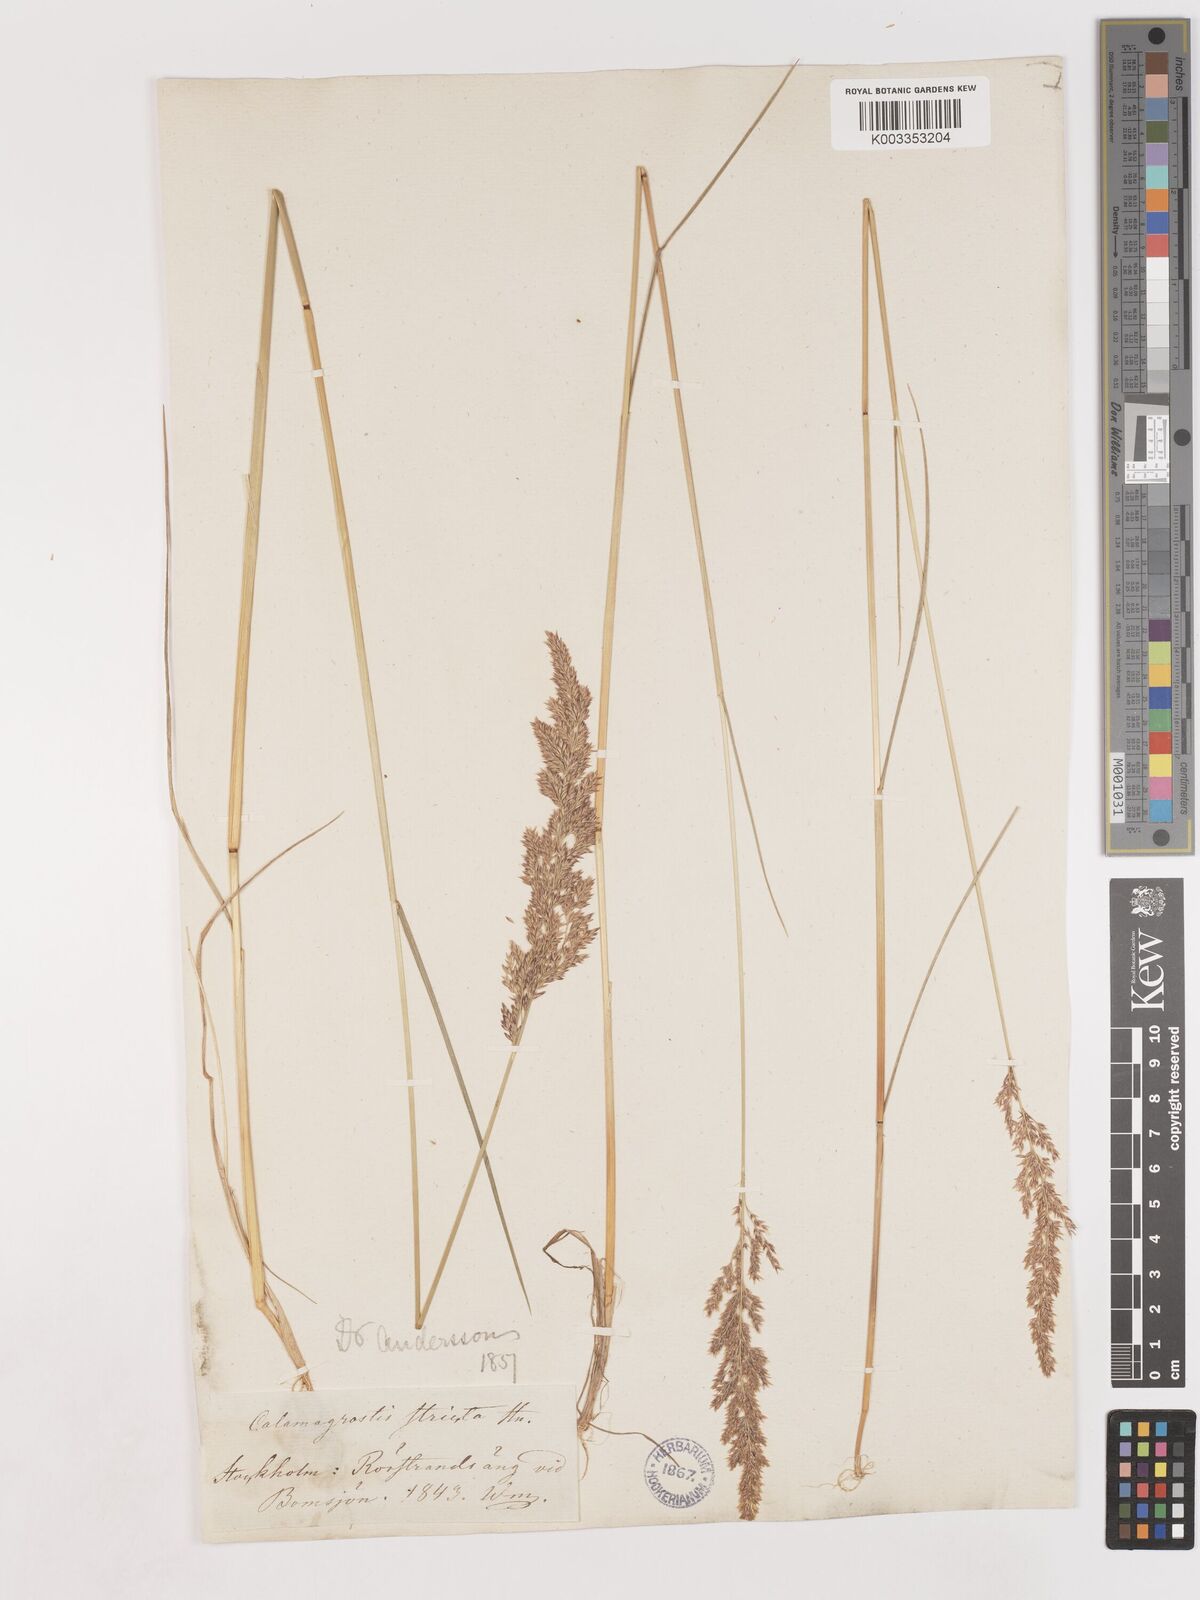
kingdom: Plantae
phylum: Tracheophyta
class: Liliopsida
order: Poales
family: Poaceae
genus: Cinnagrostis
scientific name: Cinnagrostis recta
